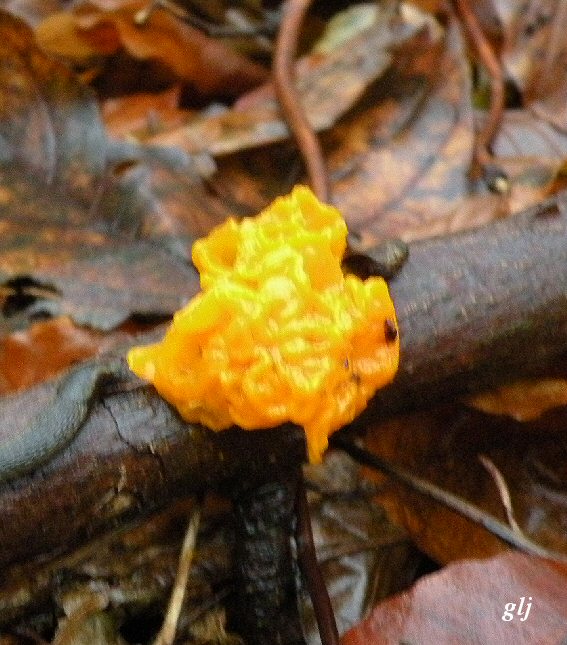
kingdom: Fungi
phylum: Basidiomycota
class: Tremellomycetes
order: Tremellales
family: Tremellaceae
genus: Tremella
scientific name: Tremella mesenterica
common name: gul bævresvamp
